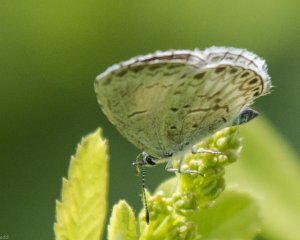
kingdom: Animalia
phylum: Arthropoda
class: Insecta
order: Lepidoptera
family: Lycaenidae
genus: Cyaniris
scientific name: Cyaniris neglecta
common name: Summer Azure
